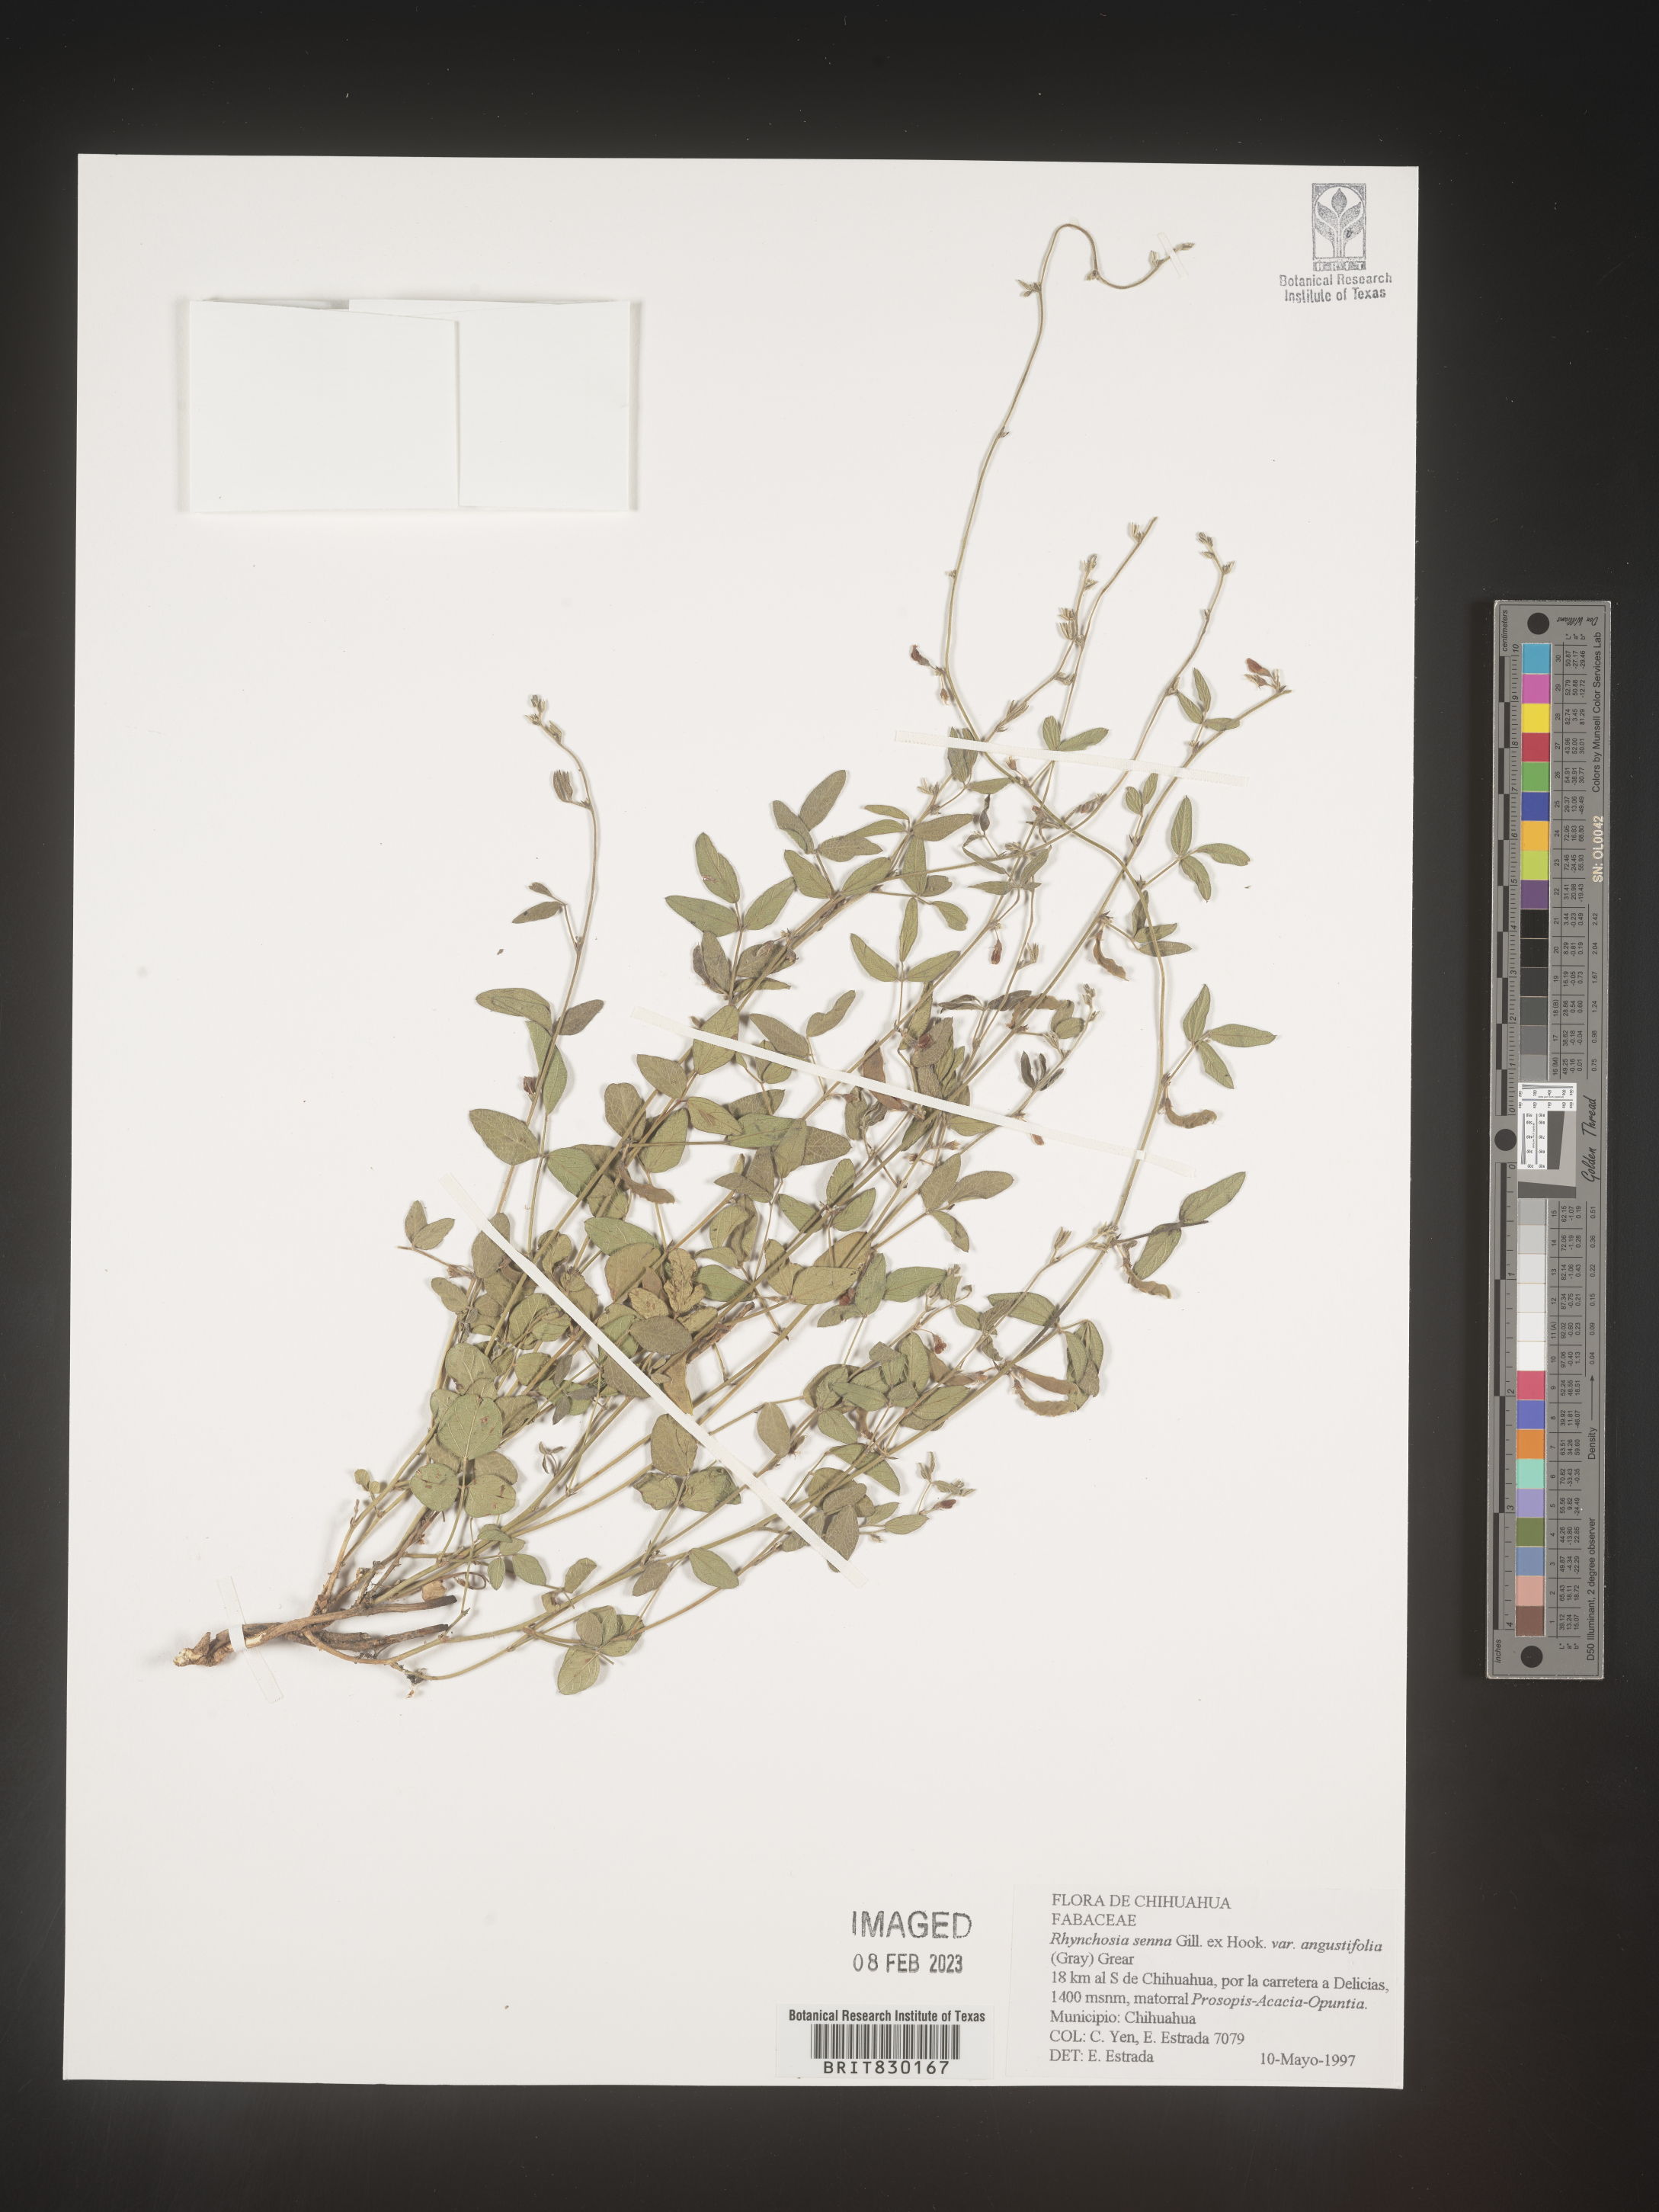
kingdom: Plantae
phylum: Tracheophyta
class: Magnoliopsida
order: Fabales
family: Fabaceae
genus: Rhynchosia
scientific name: Rhynchosia
